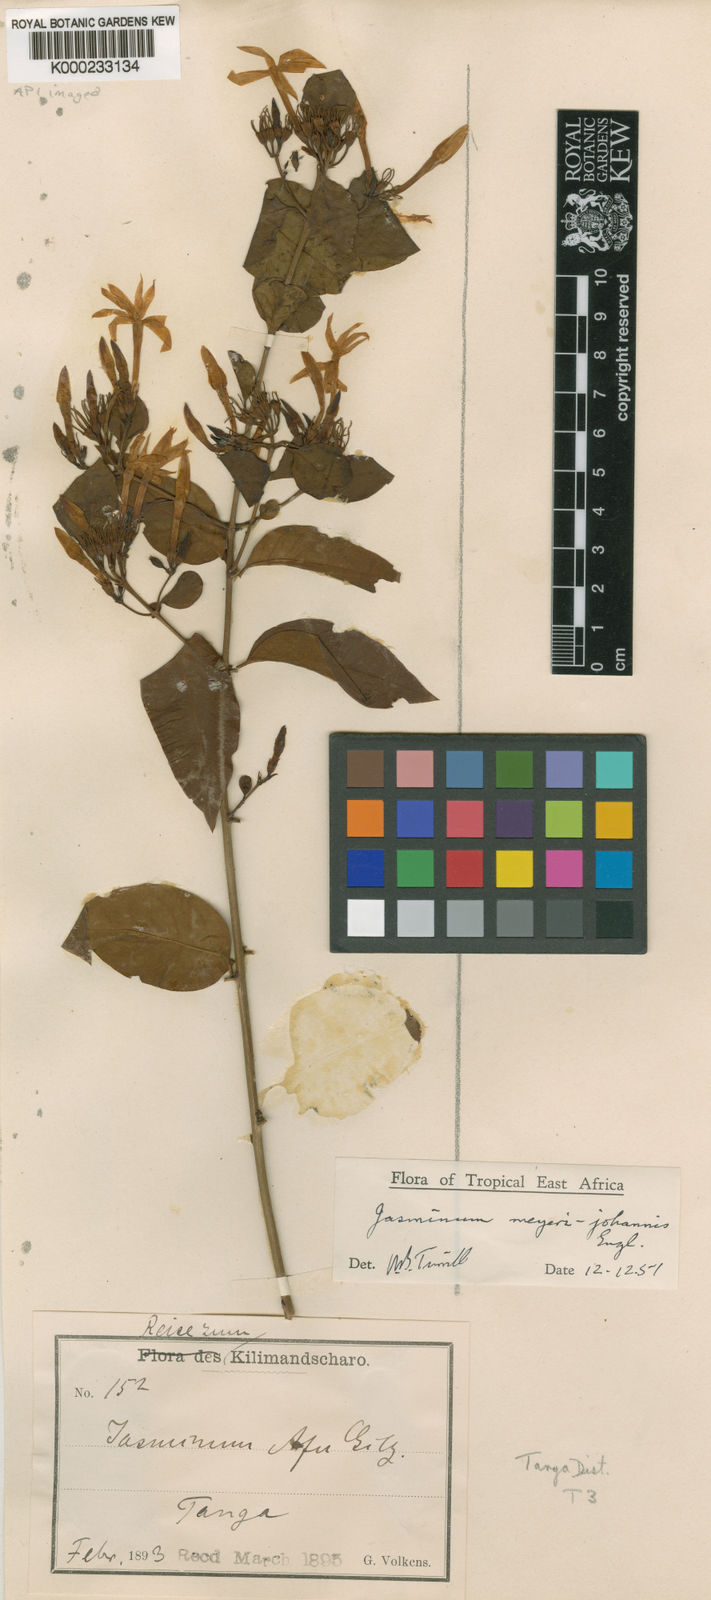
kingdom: Plantae
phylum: Tracheophyta
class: Magnoliopsida
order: Lamiales
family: Oleaceae
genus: Jasminum
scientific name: Jasminum meyeri-johannis
